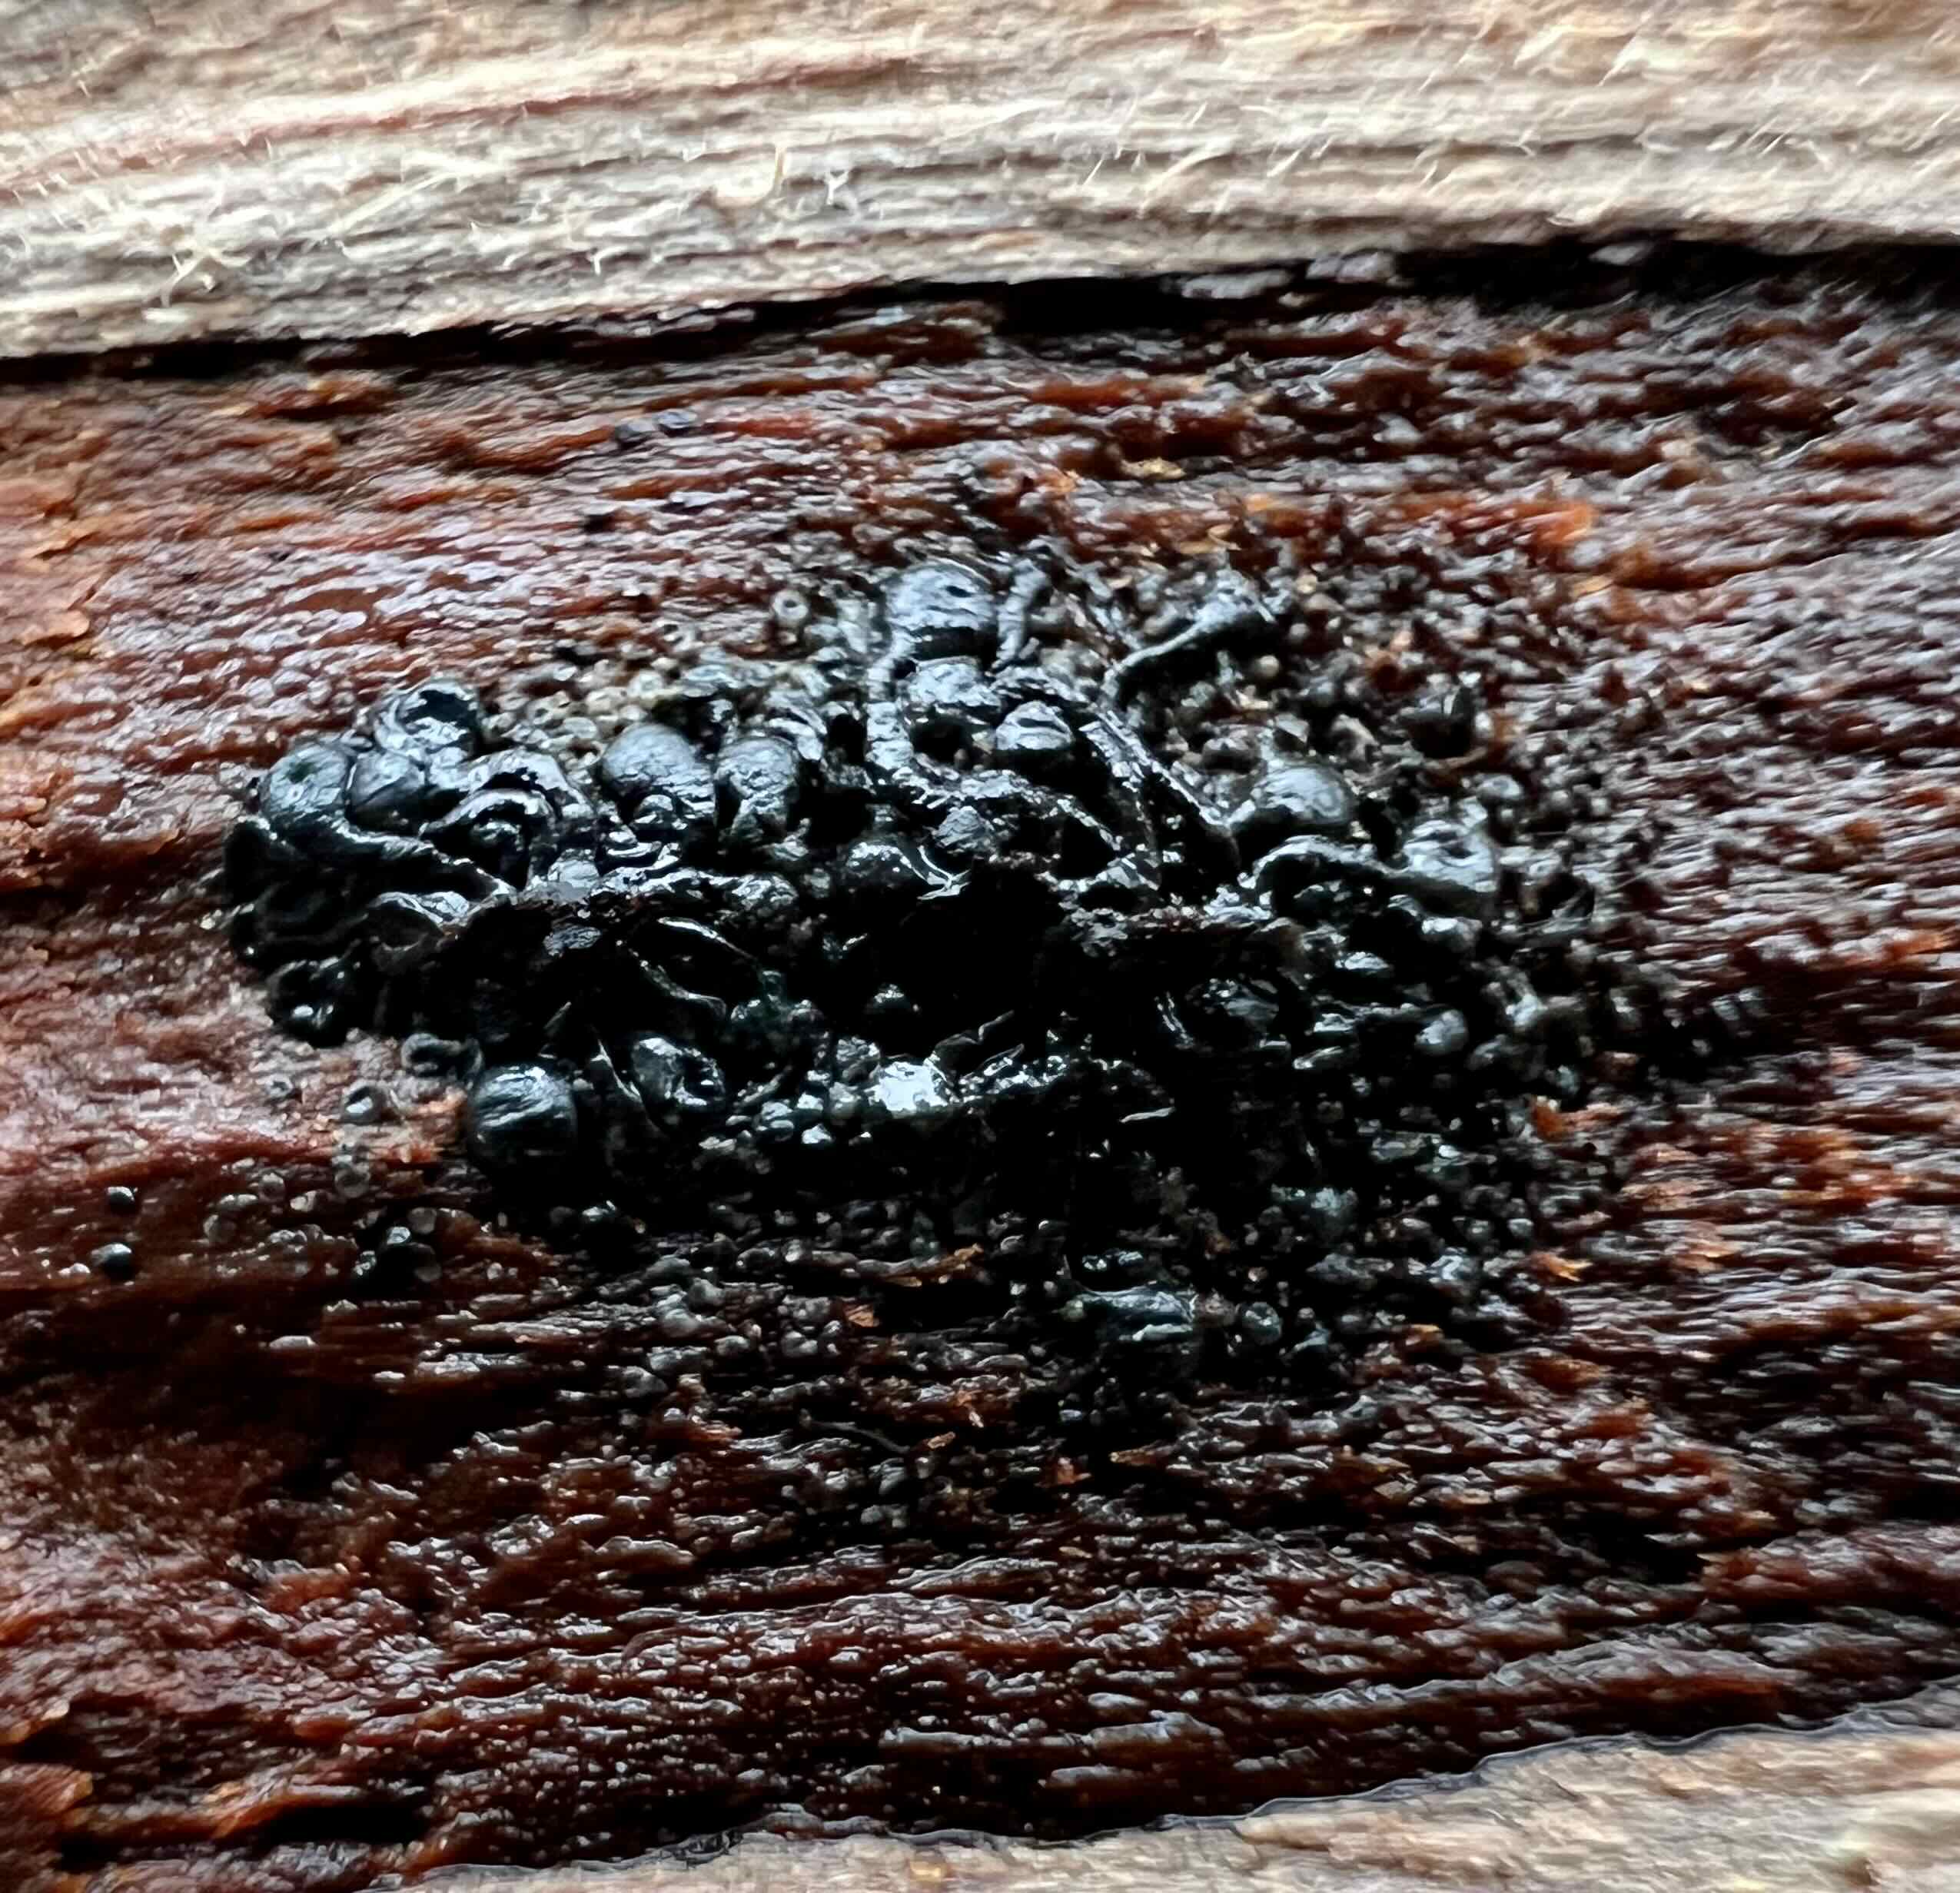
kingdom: Fungi
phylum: Ascomycota
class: Sordariomycetes
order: Calosphaeriales
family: Calosphaeriaceae
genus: Calosphaeria
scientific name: Calosphaeria pulchella
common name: smuk slyngkerne
